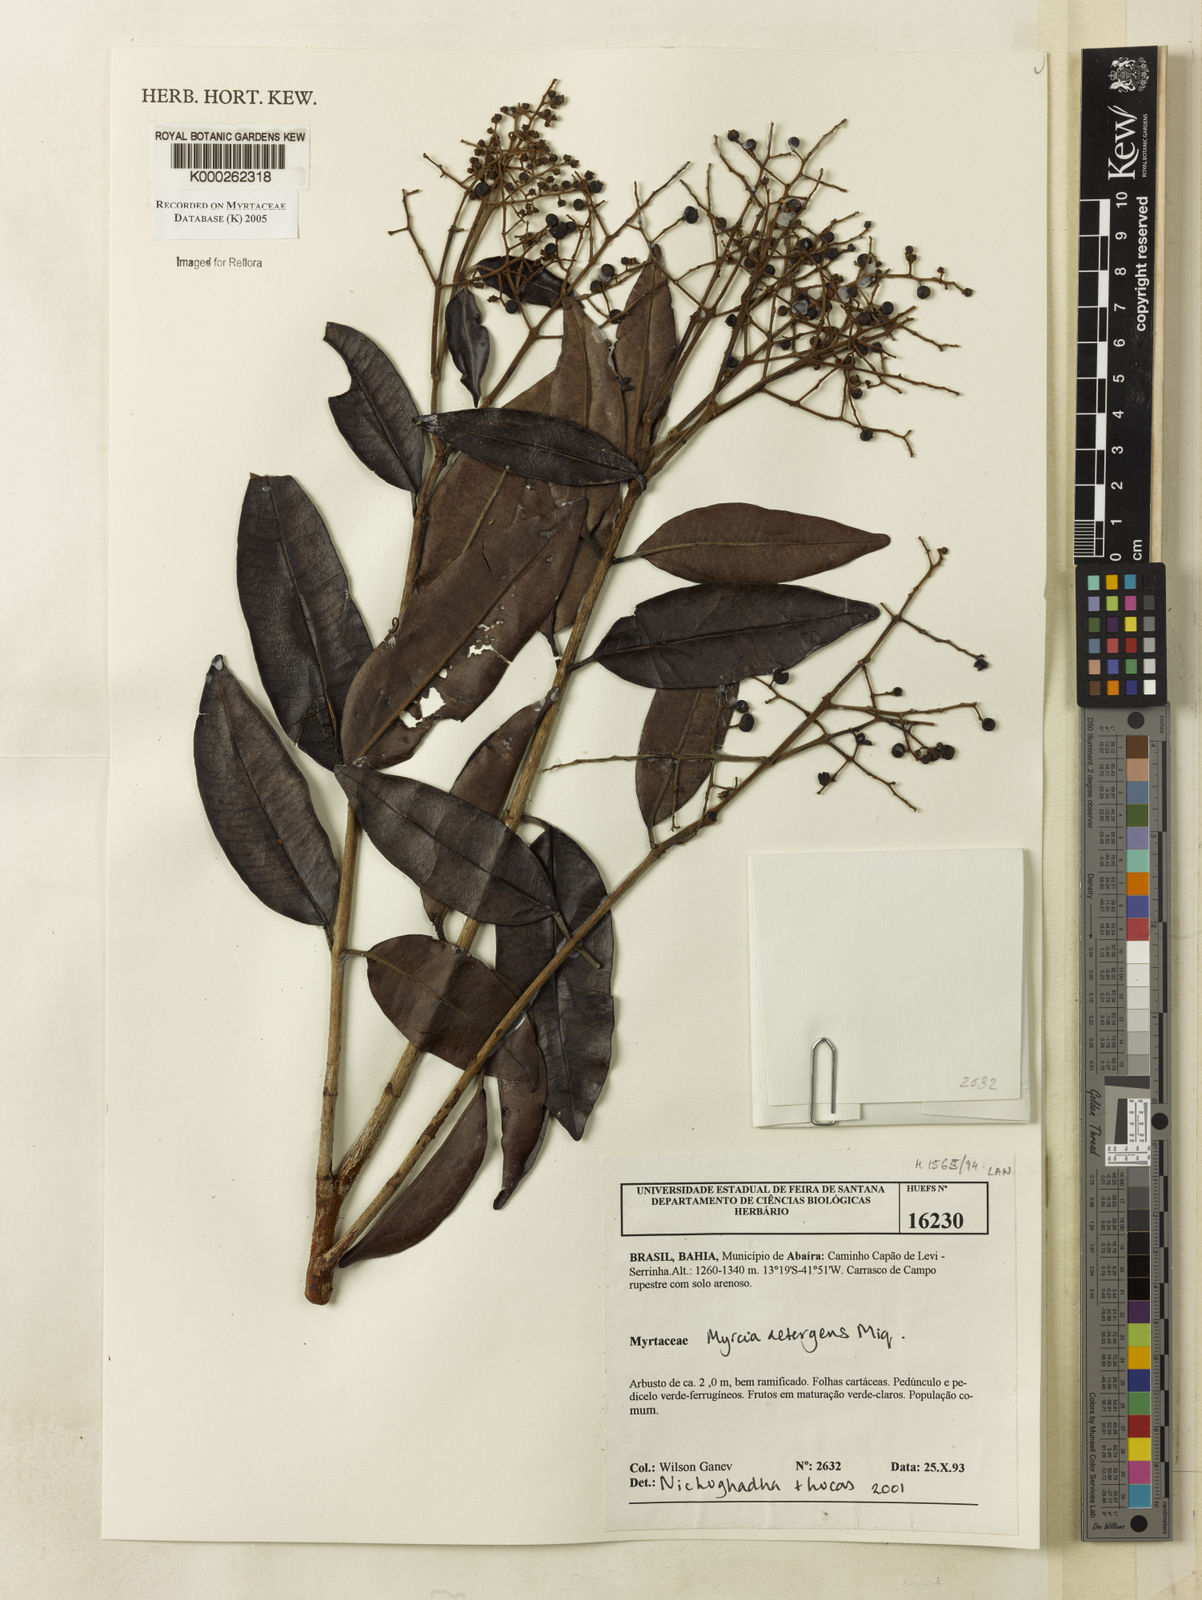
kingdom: Plantae
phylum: Tracheophyta
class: Magnoliopsida
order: Myrtales
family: Myrtaceae
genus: Myrcia
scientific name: Myrcia amazonica
